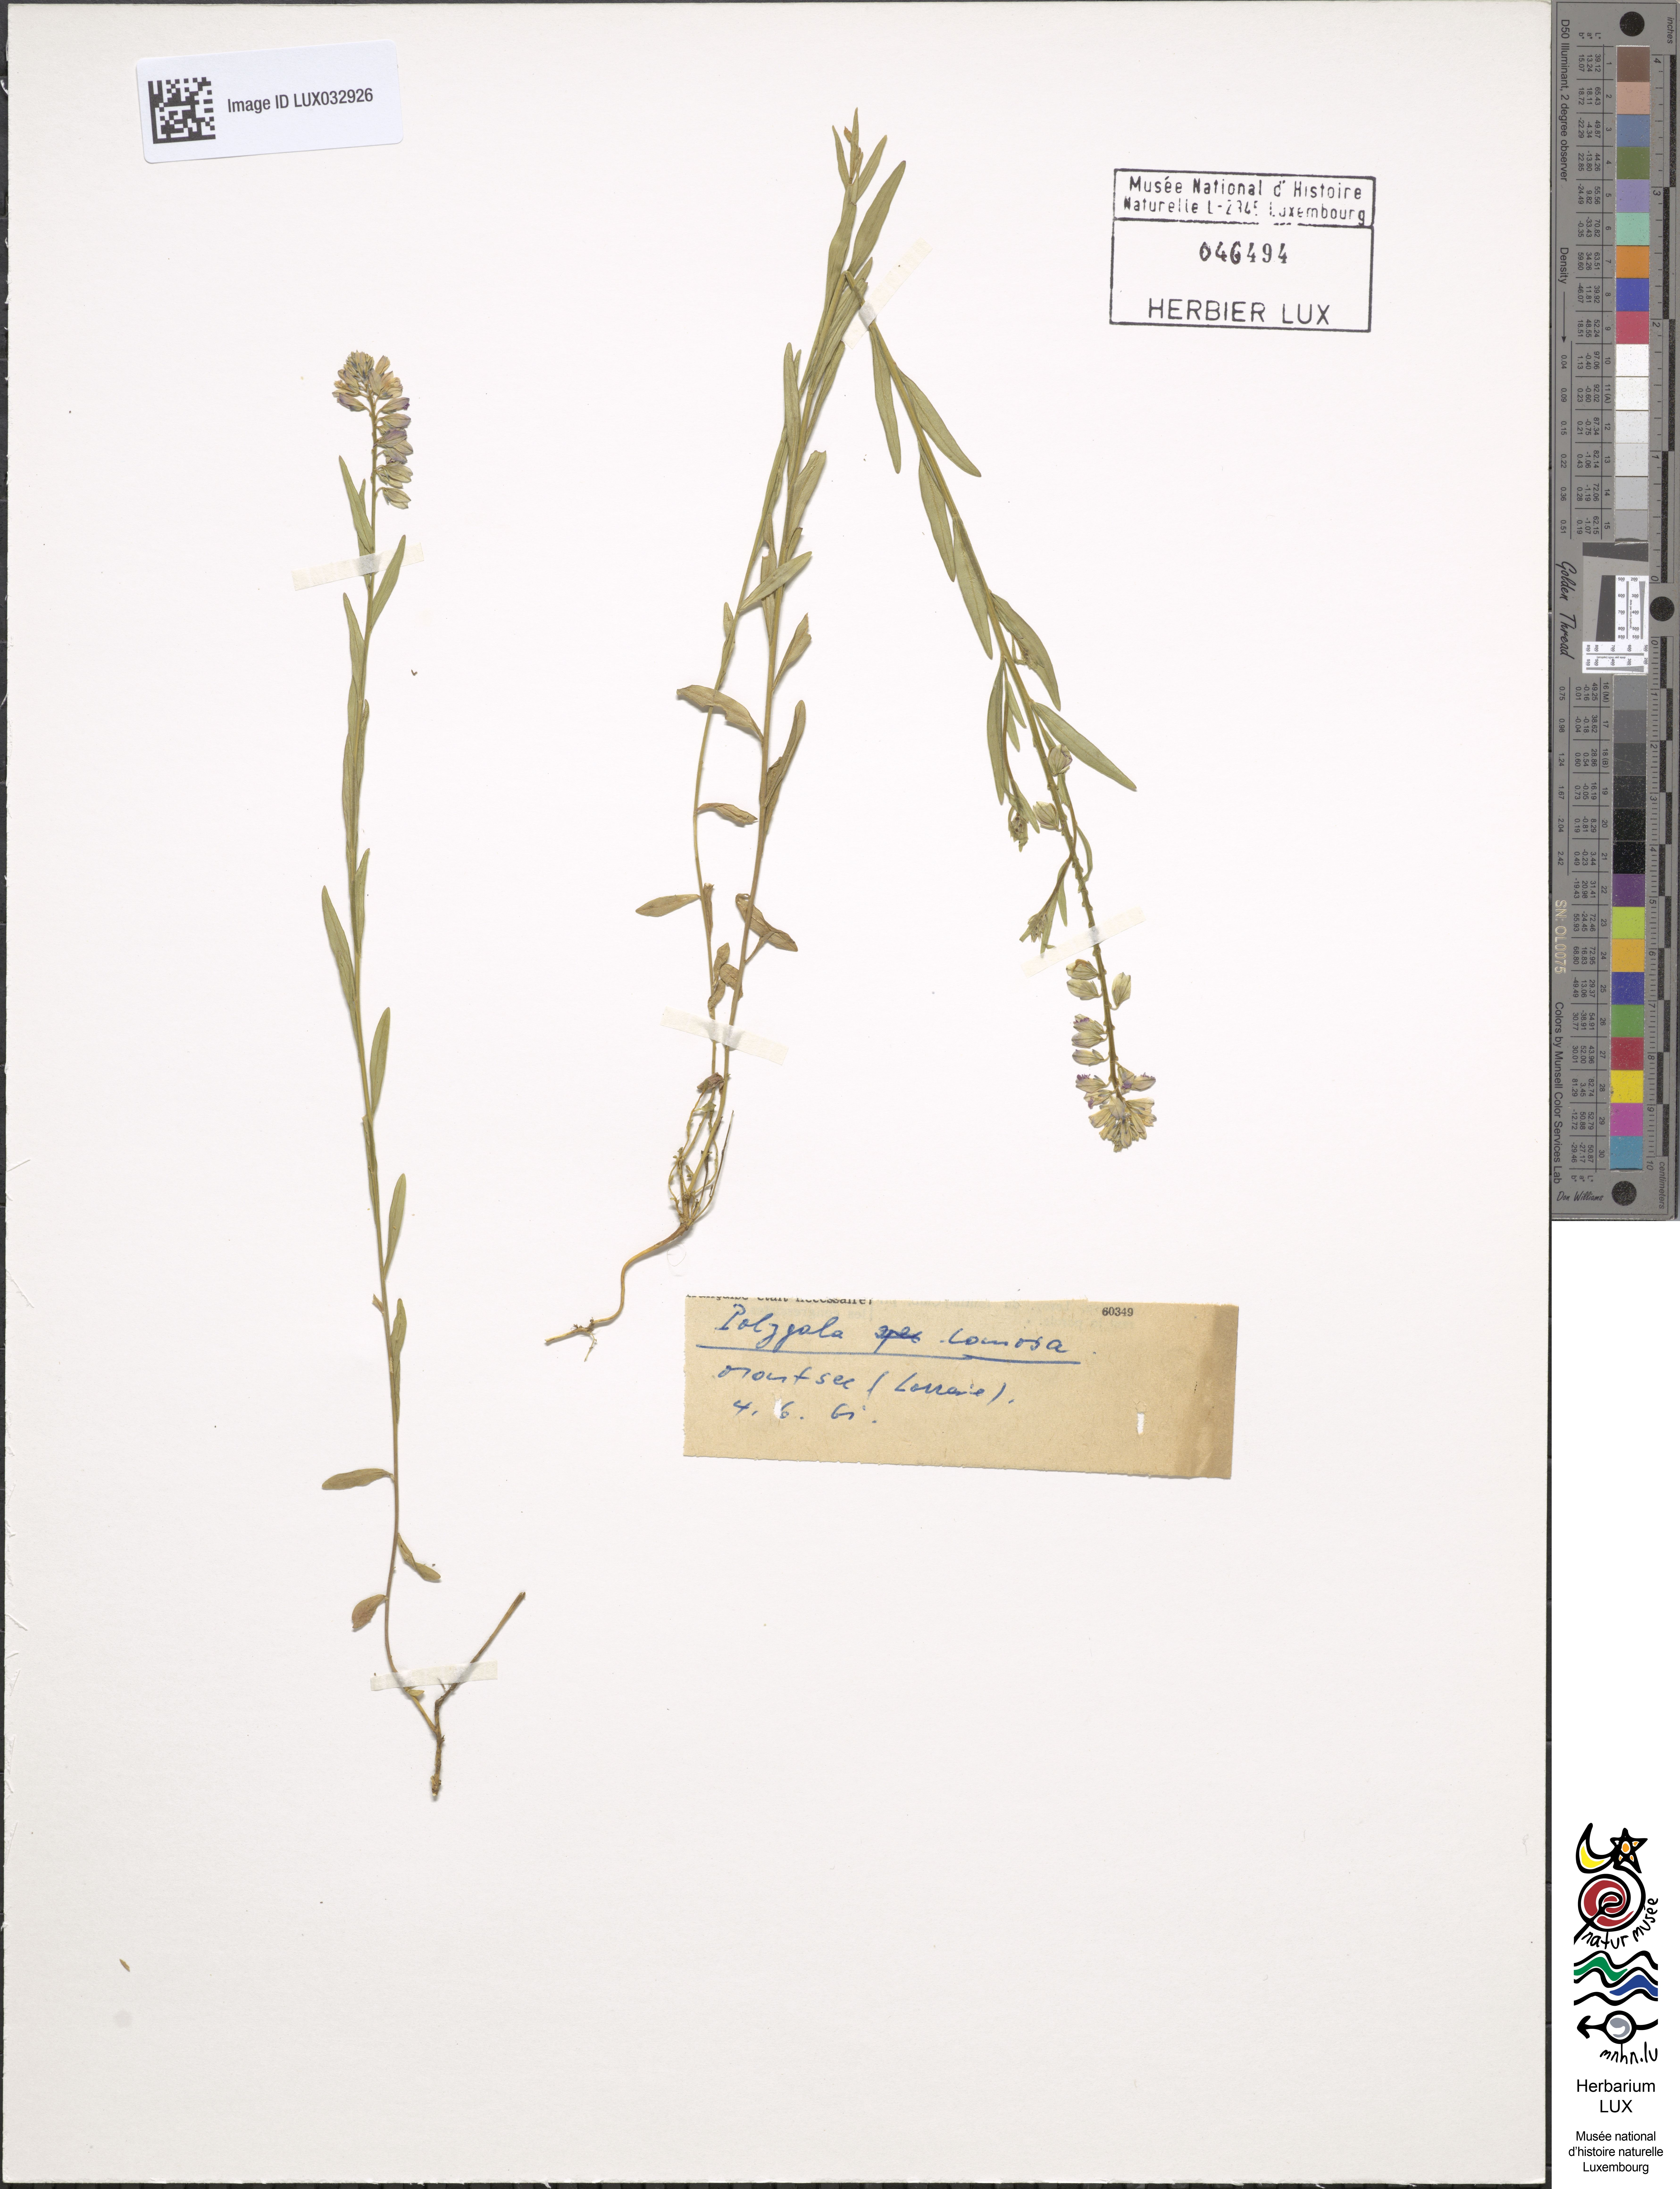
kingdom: Plantae
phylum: Tracheophyta
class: Magnoliopsida
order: Fabales
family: Polygalaceae
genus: Polygala
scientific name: Polygala comosa
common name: Tufted milkwort
